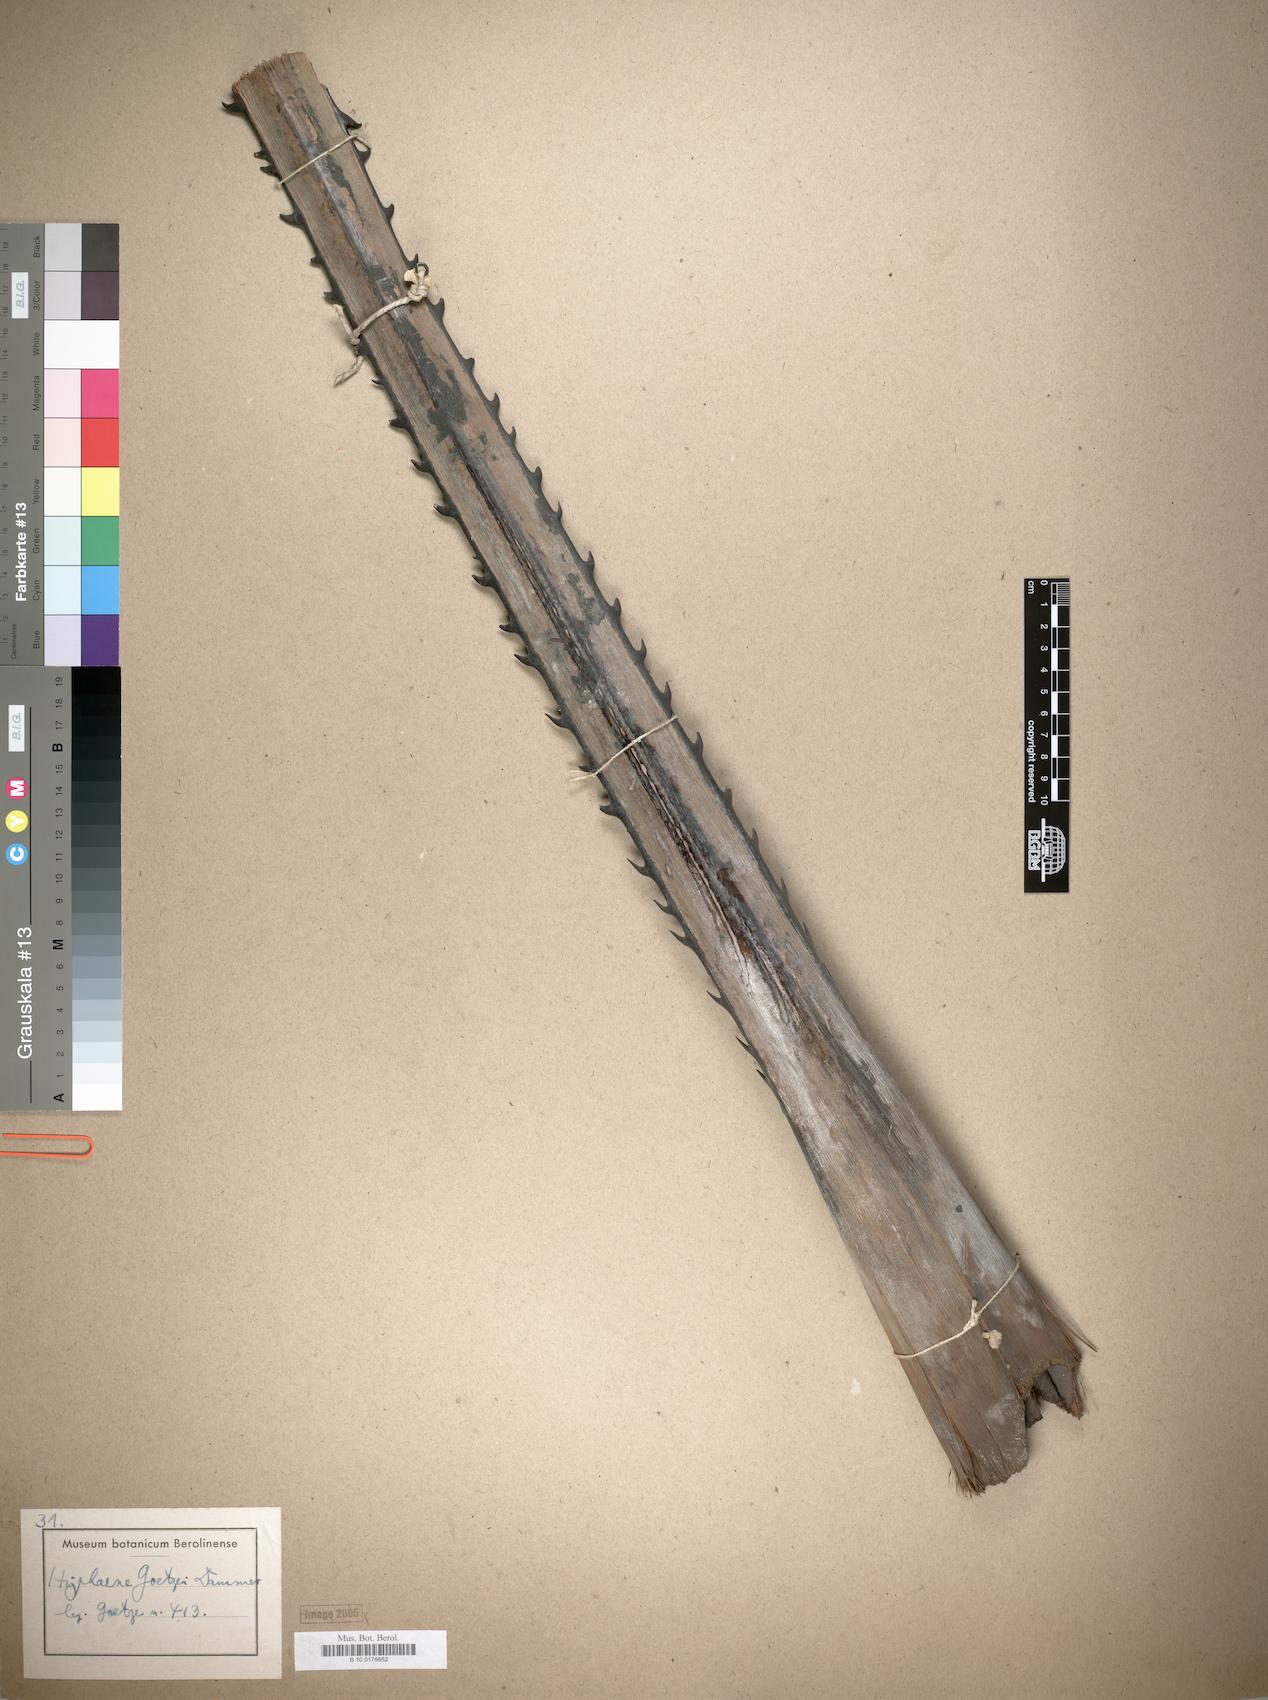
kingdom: Plantae
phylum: Tracheophyta
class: Liliopsida
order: Arecales
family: Arecaceae
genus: Hyphaene
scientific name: Hyphaene petersiana
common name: African ivory nut palm
